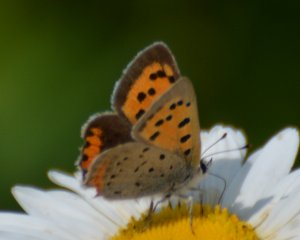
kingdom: Animalia
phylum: Arthropoda
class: Insecta
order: Lepidoptera
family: Lycaenidae
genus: Lycaena
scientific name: Lycaena phlaeas
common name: American Copper
